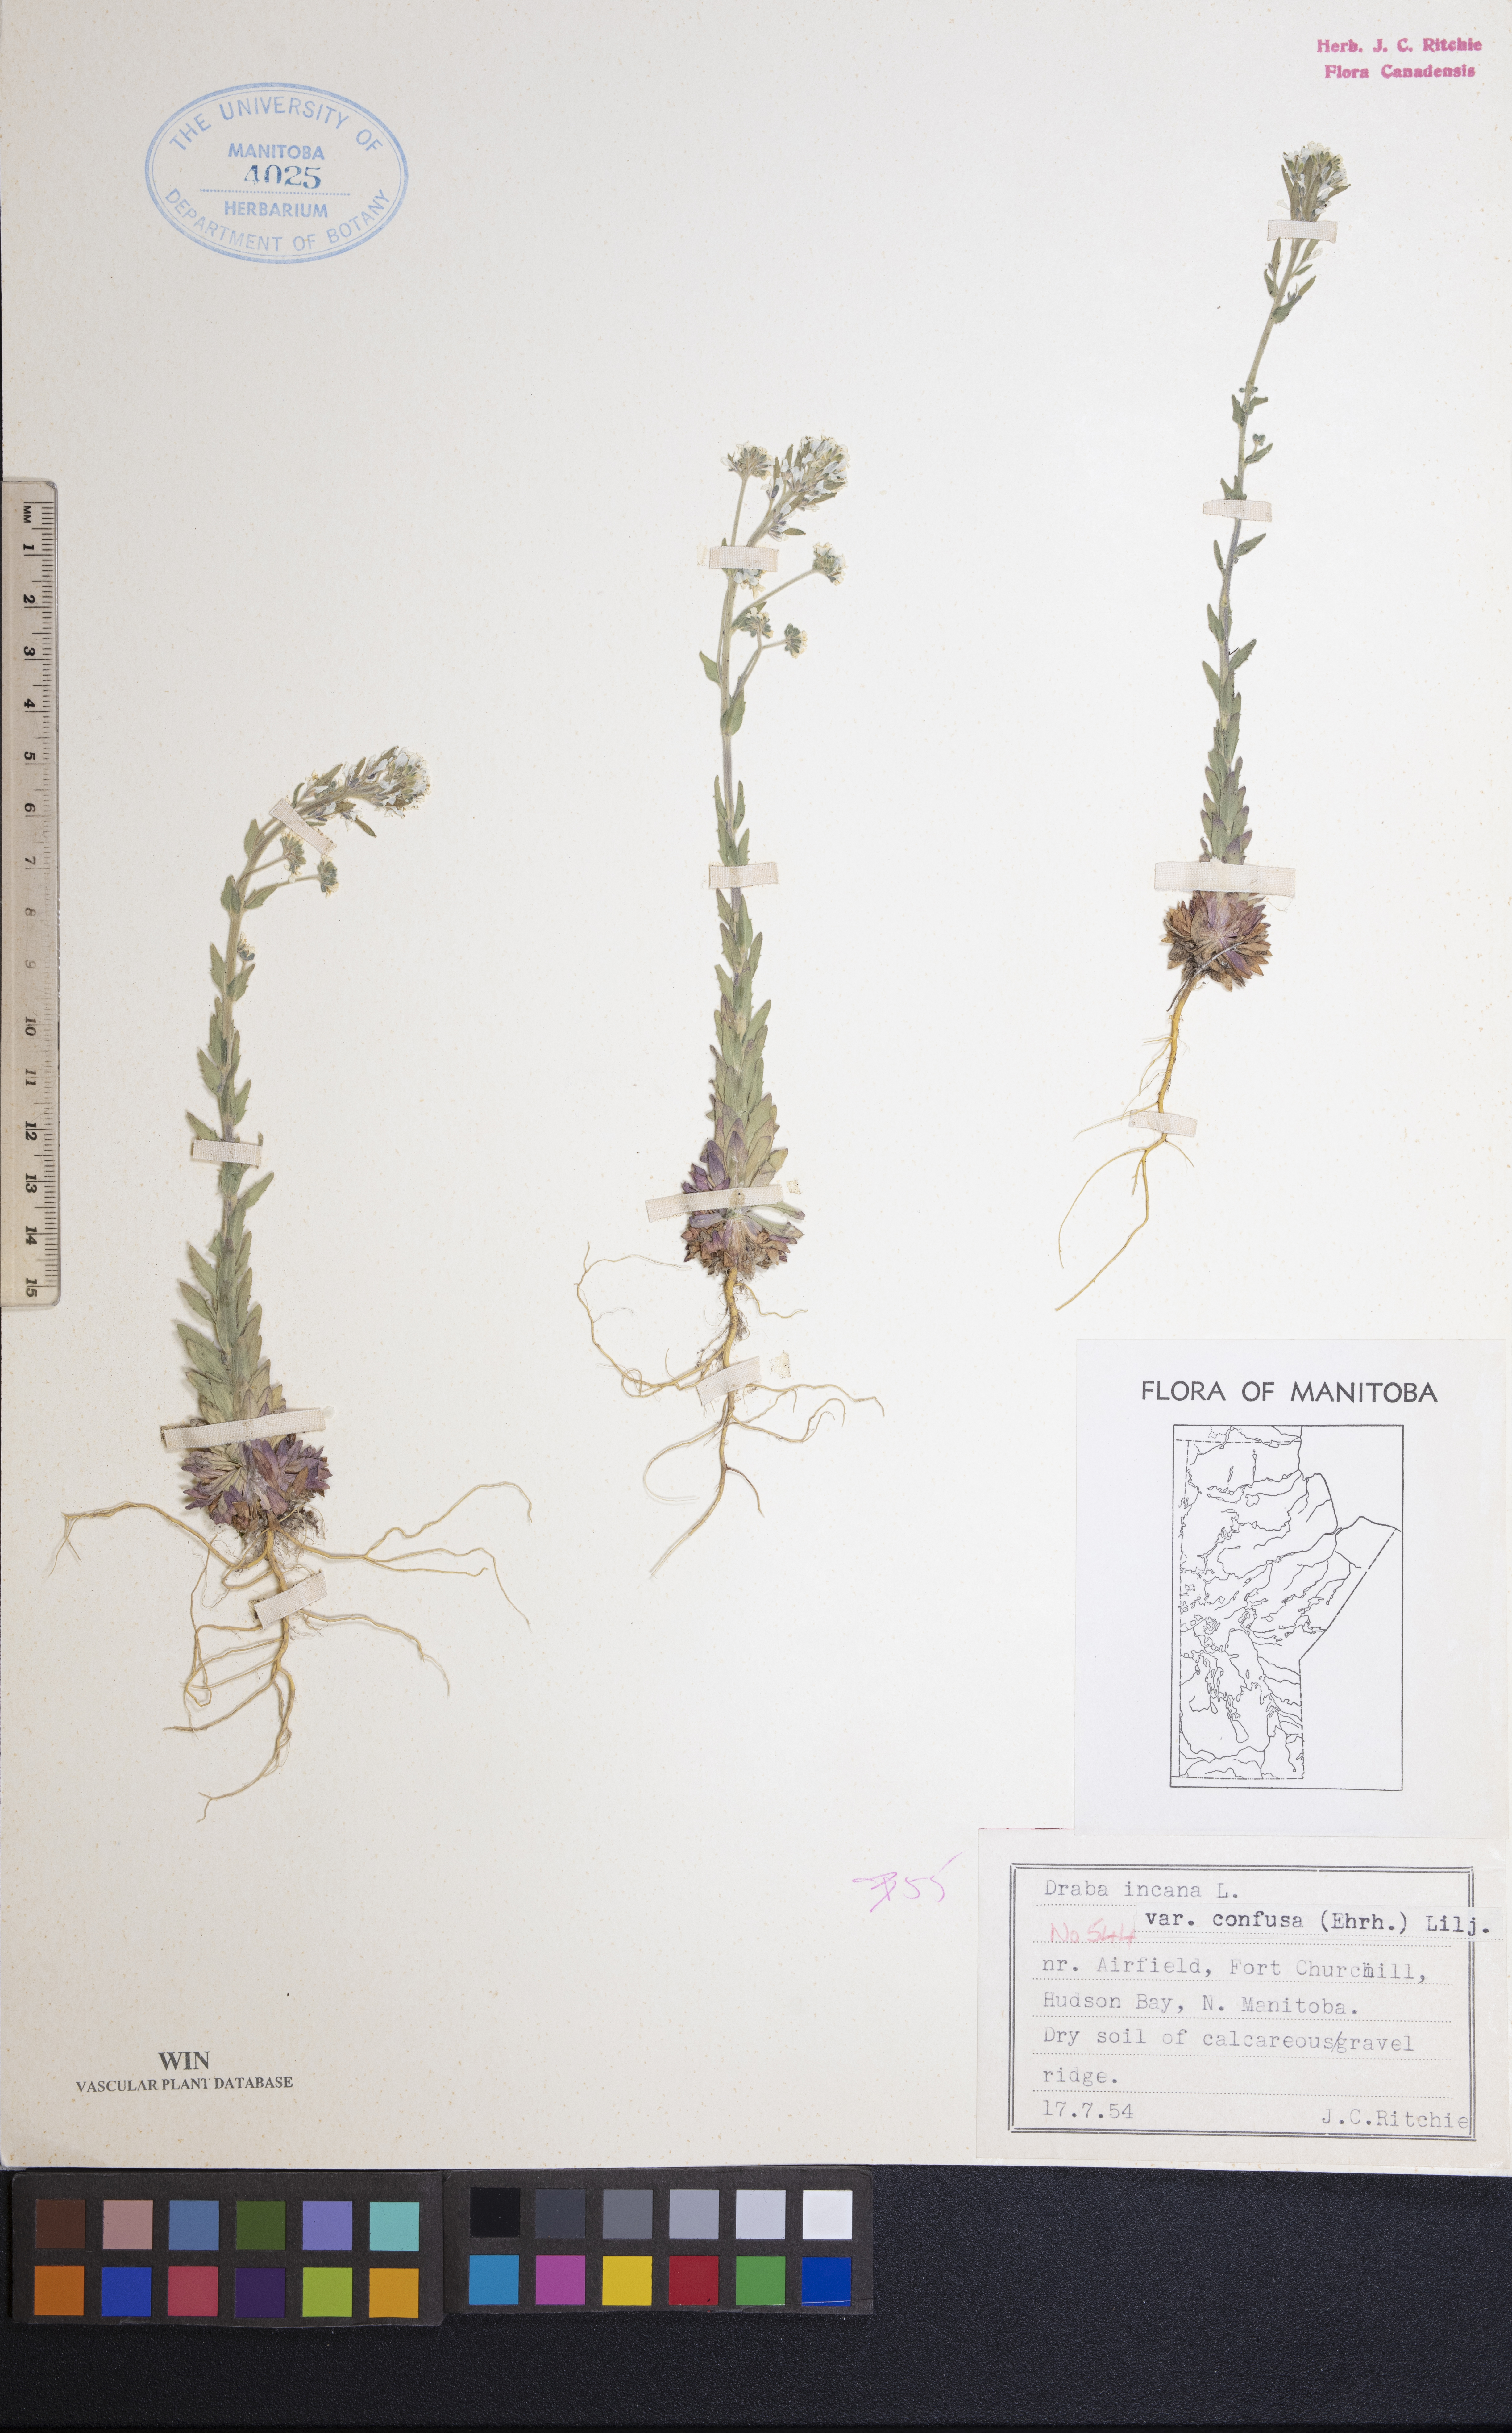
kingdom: Plantae
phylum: Tracheophyta
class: Magnoliopsida
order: Brassicales
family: Brassicaceae
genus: Draba
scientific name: Draba incana
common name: Hoary whitlow-grass
